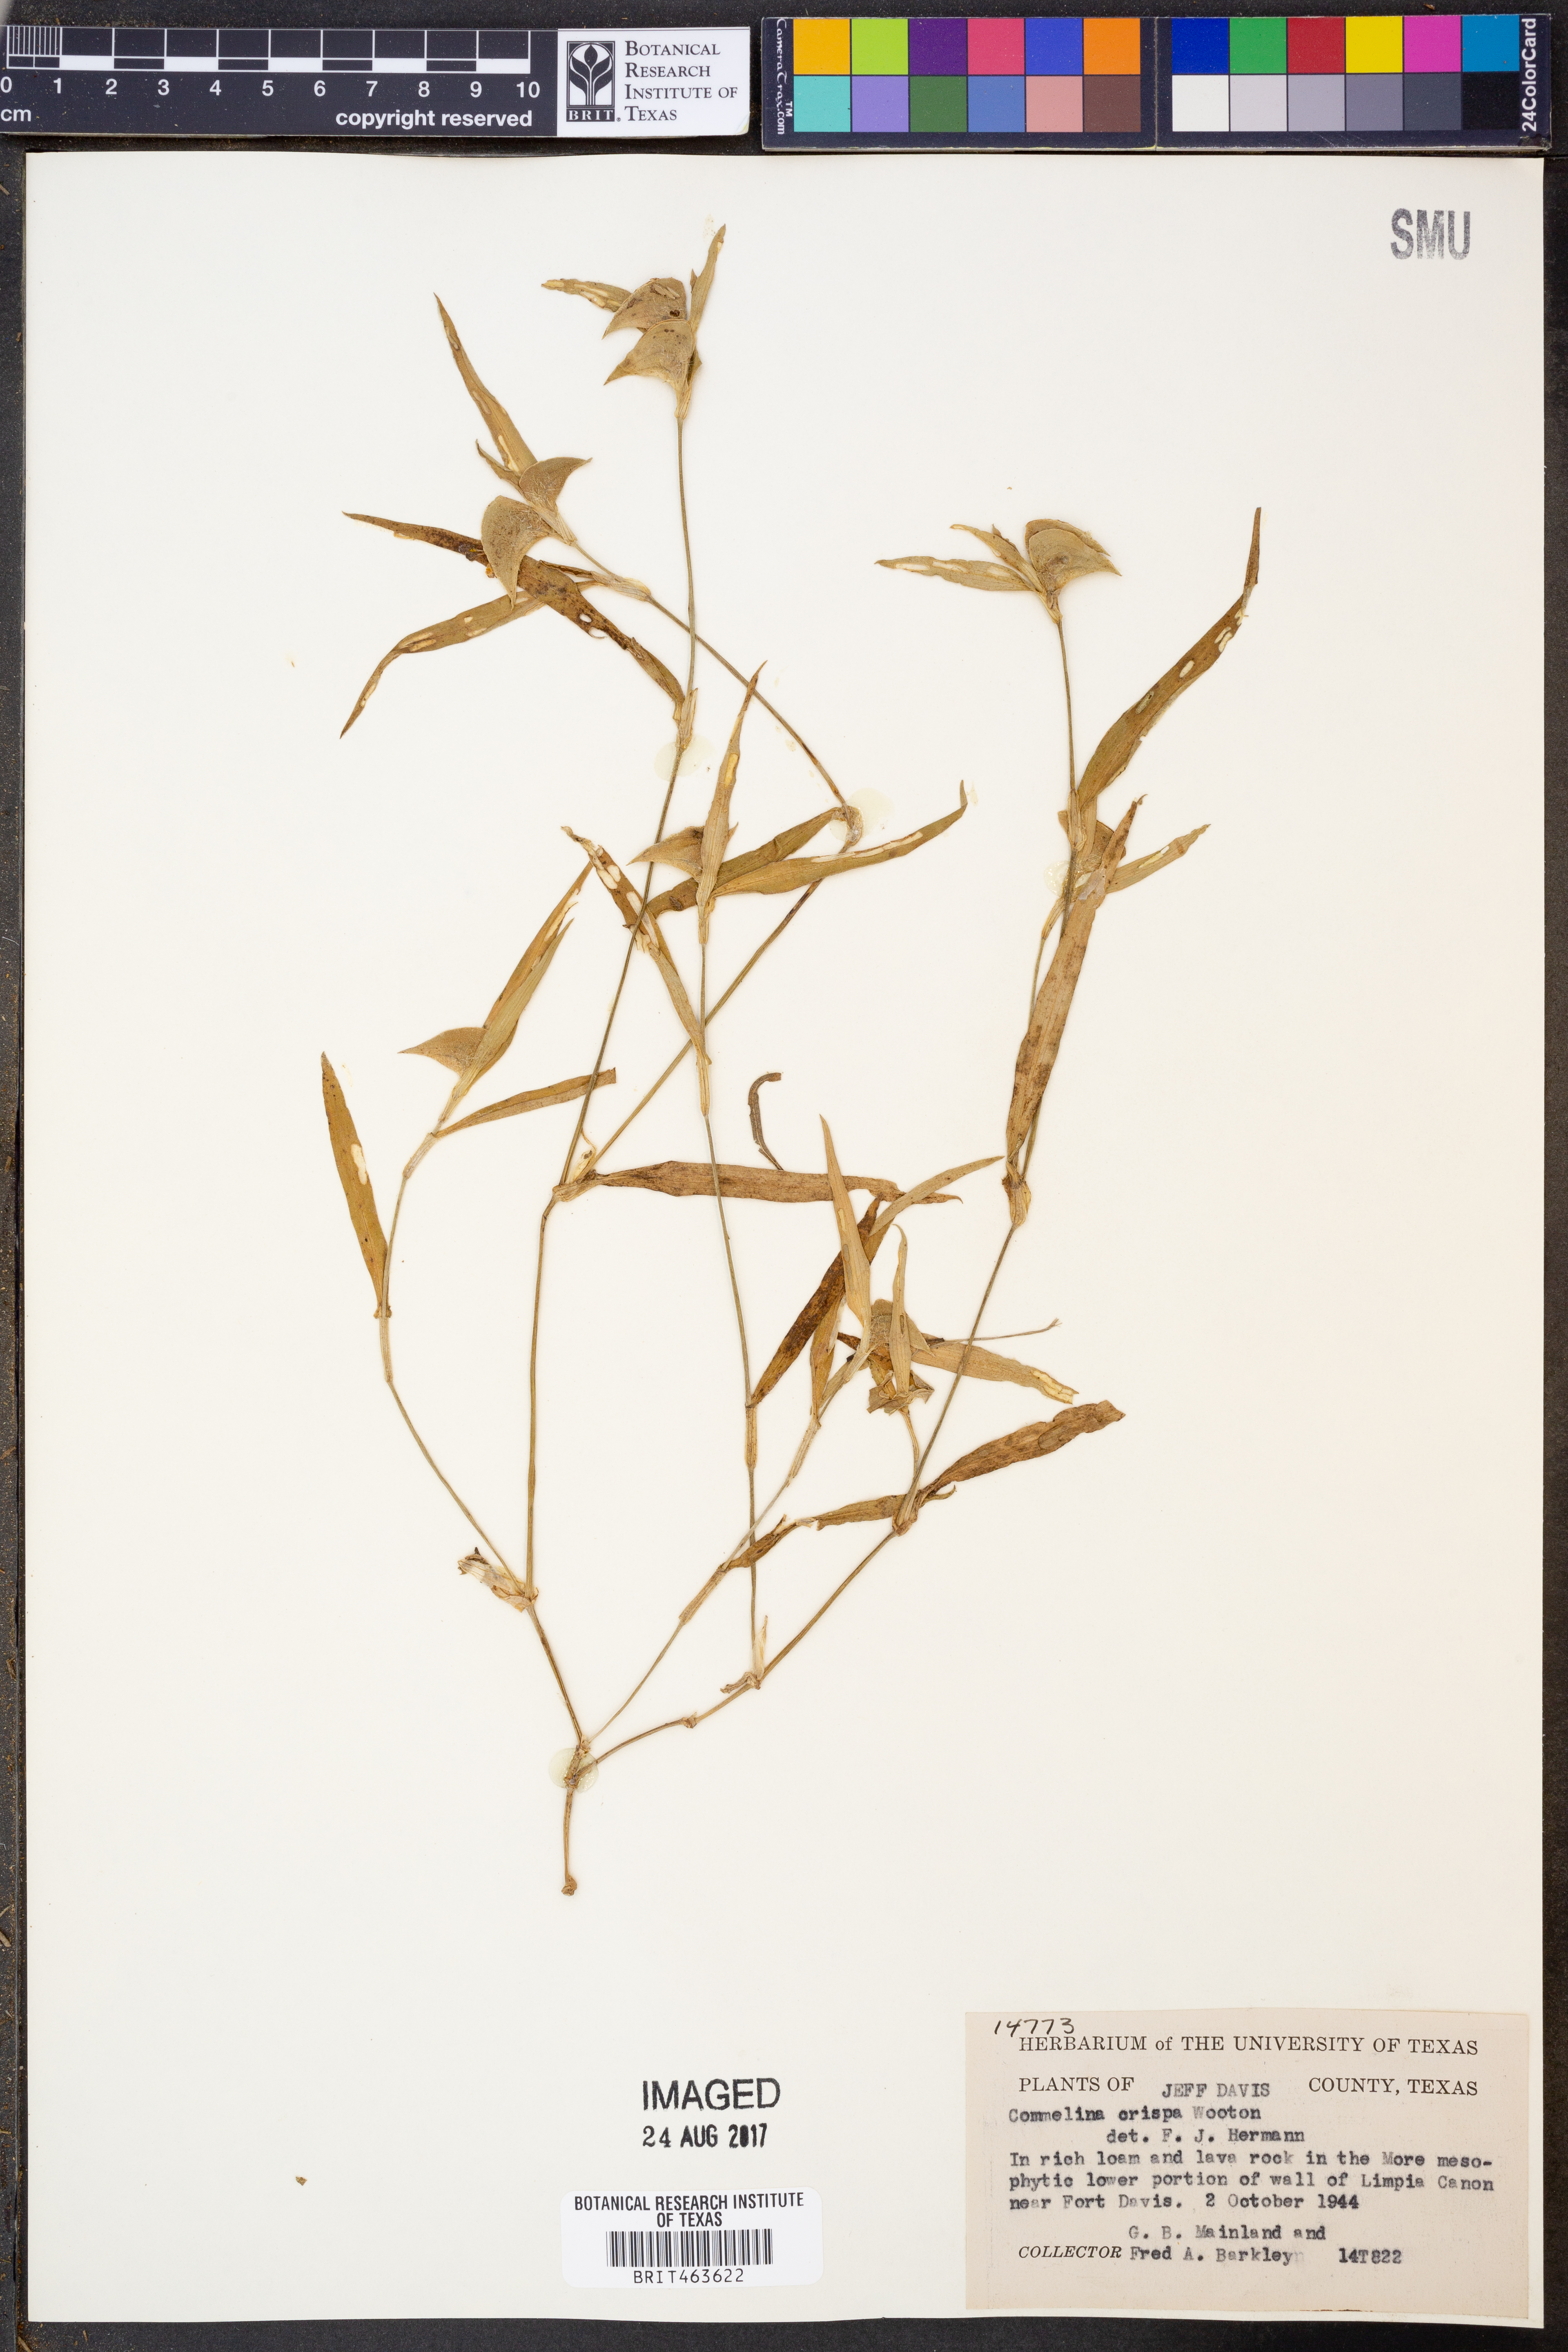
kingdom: Plantae
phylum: Tracheophyta
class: Liliopsida
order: Commelinales
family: Commelinaceae
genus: Commelina
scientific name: Commelina erecta
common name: Blousel blommetjie
